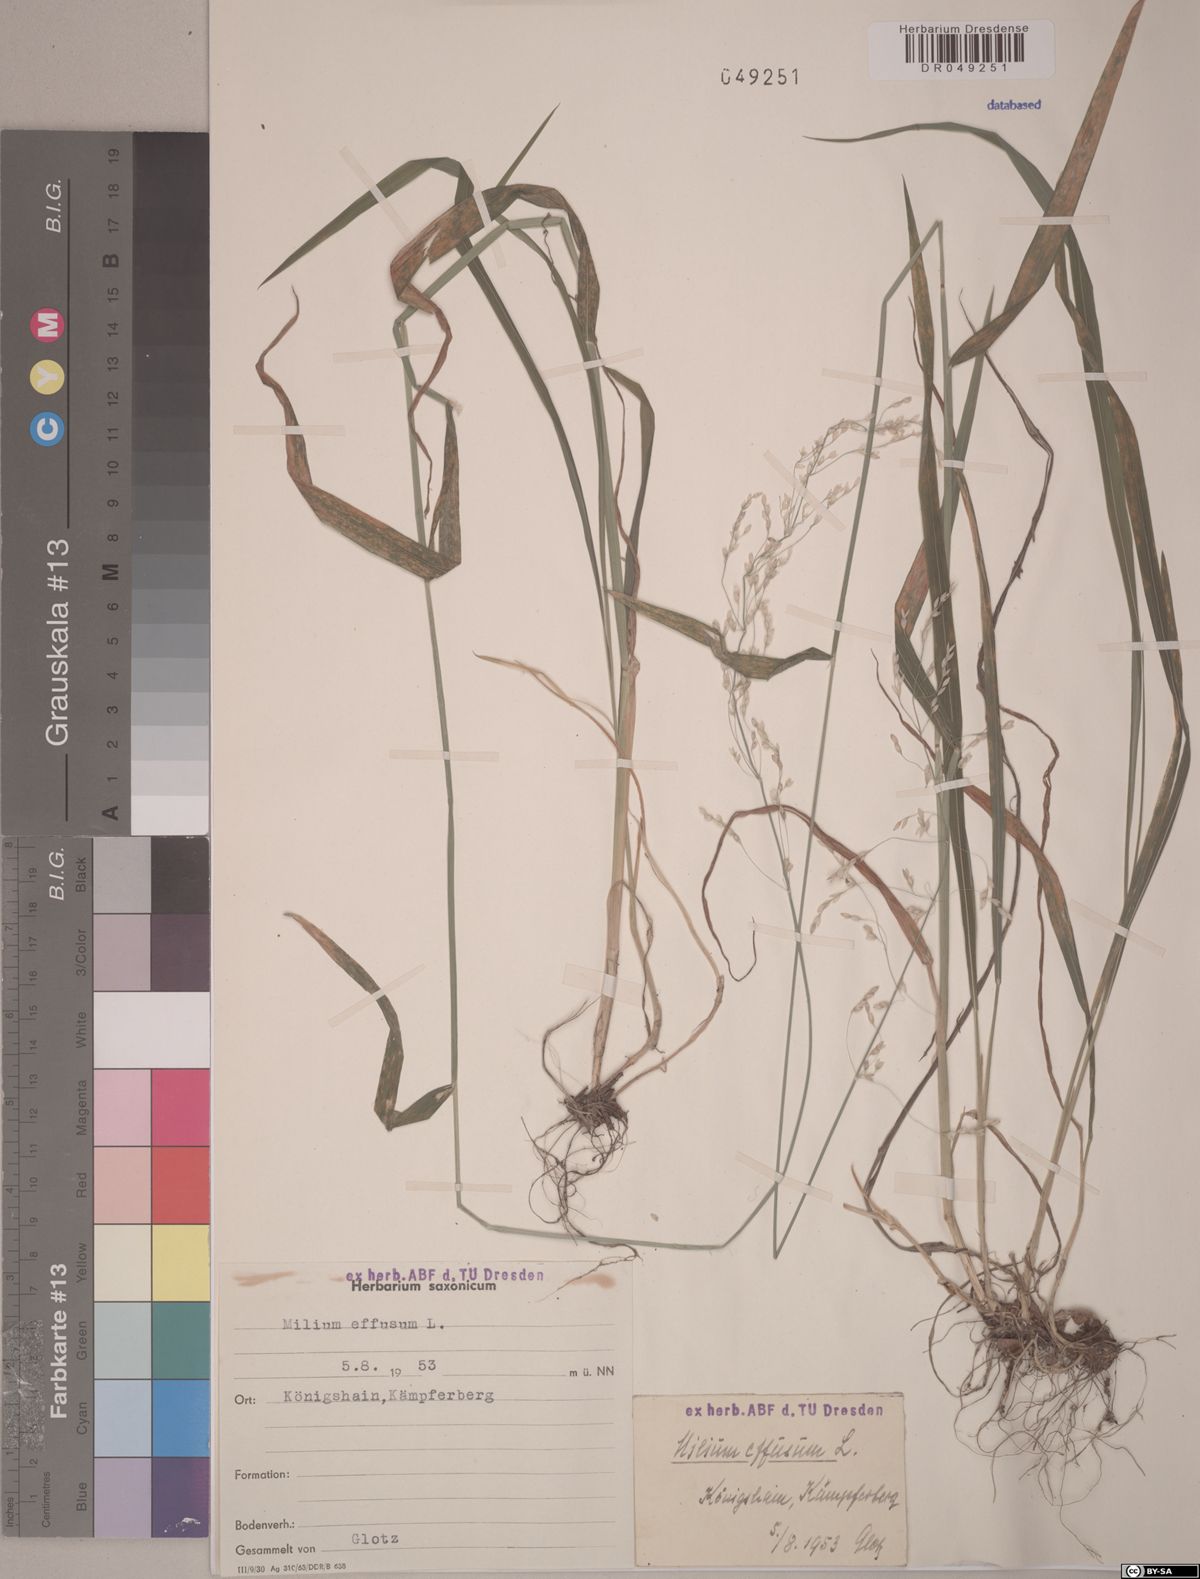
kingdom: Plantae
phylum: Tracheophyta
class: Liliopsida
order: Poales
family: Poaceae
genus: Milium
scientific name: Milium effusum
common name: Wood millet
